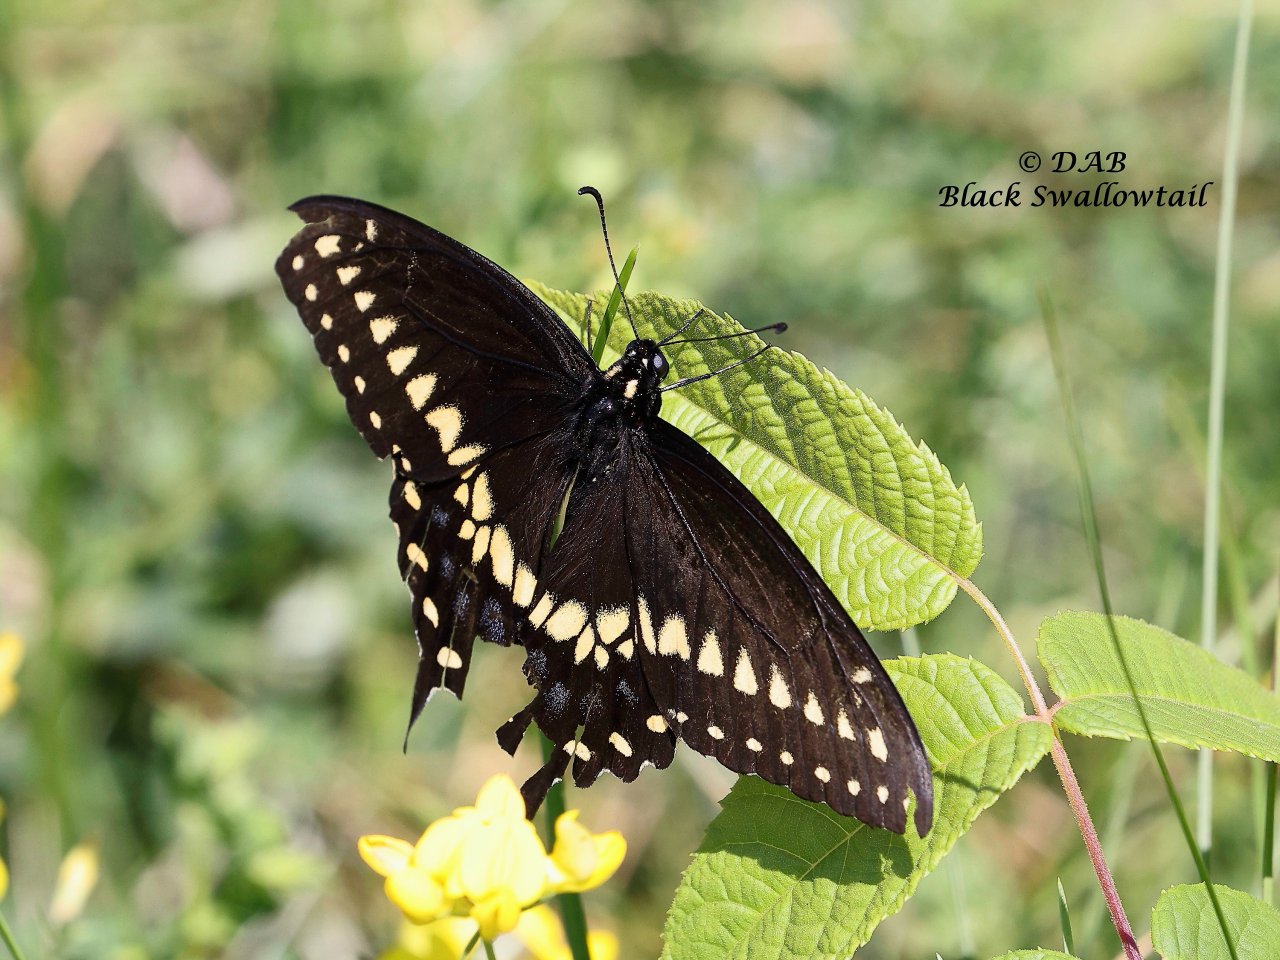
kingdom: Animalia
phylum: Arthropoda
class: Insecta
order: Lepidoptera
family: Papilionidae
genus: Papilio
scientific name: Papilio polyxenes
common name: Black Swallowtail
